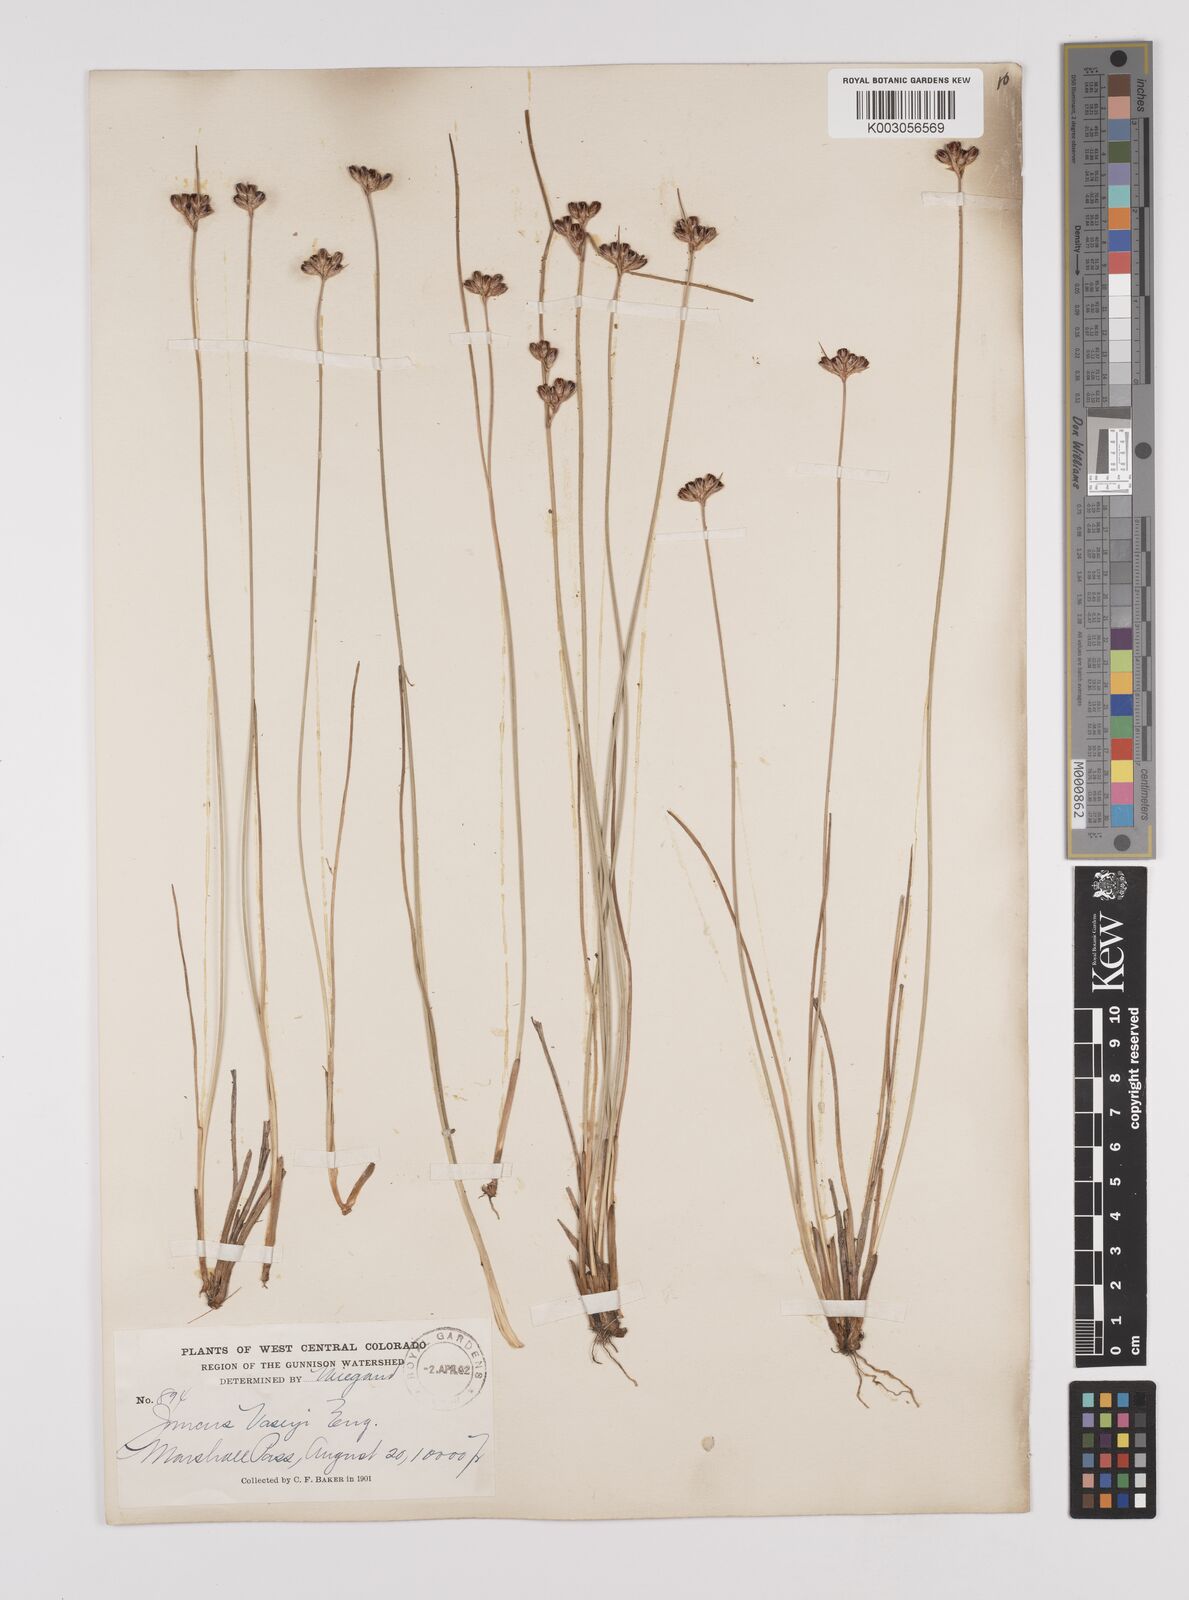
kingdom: Plantae
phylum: Tracheophyta
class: Liliopsida
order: Poales
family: Juncaceae
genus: Juncus
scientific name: Juncus vaseyi
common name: Big-headed rush
